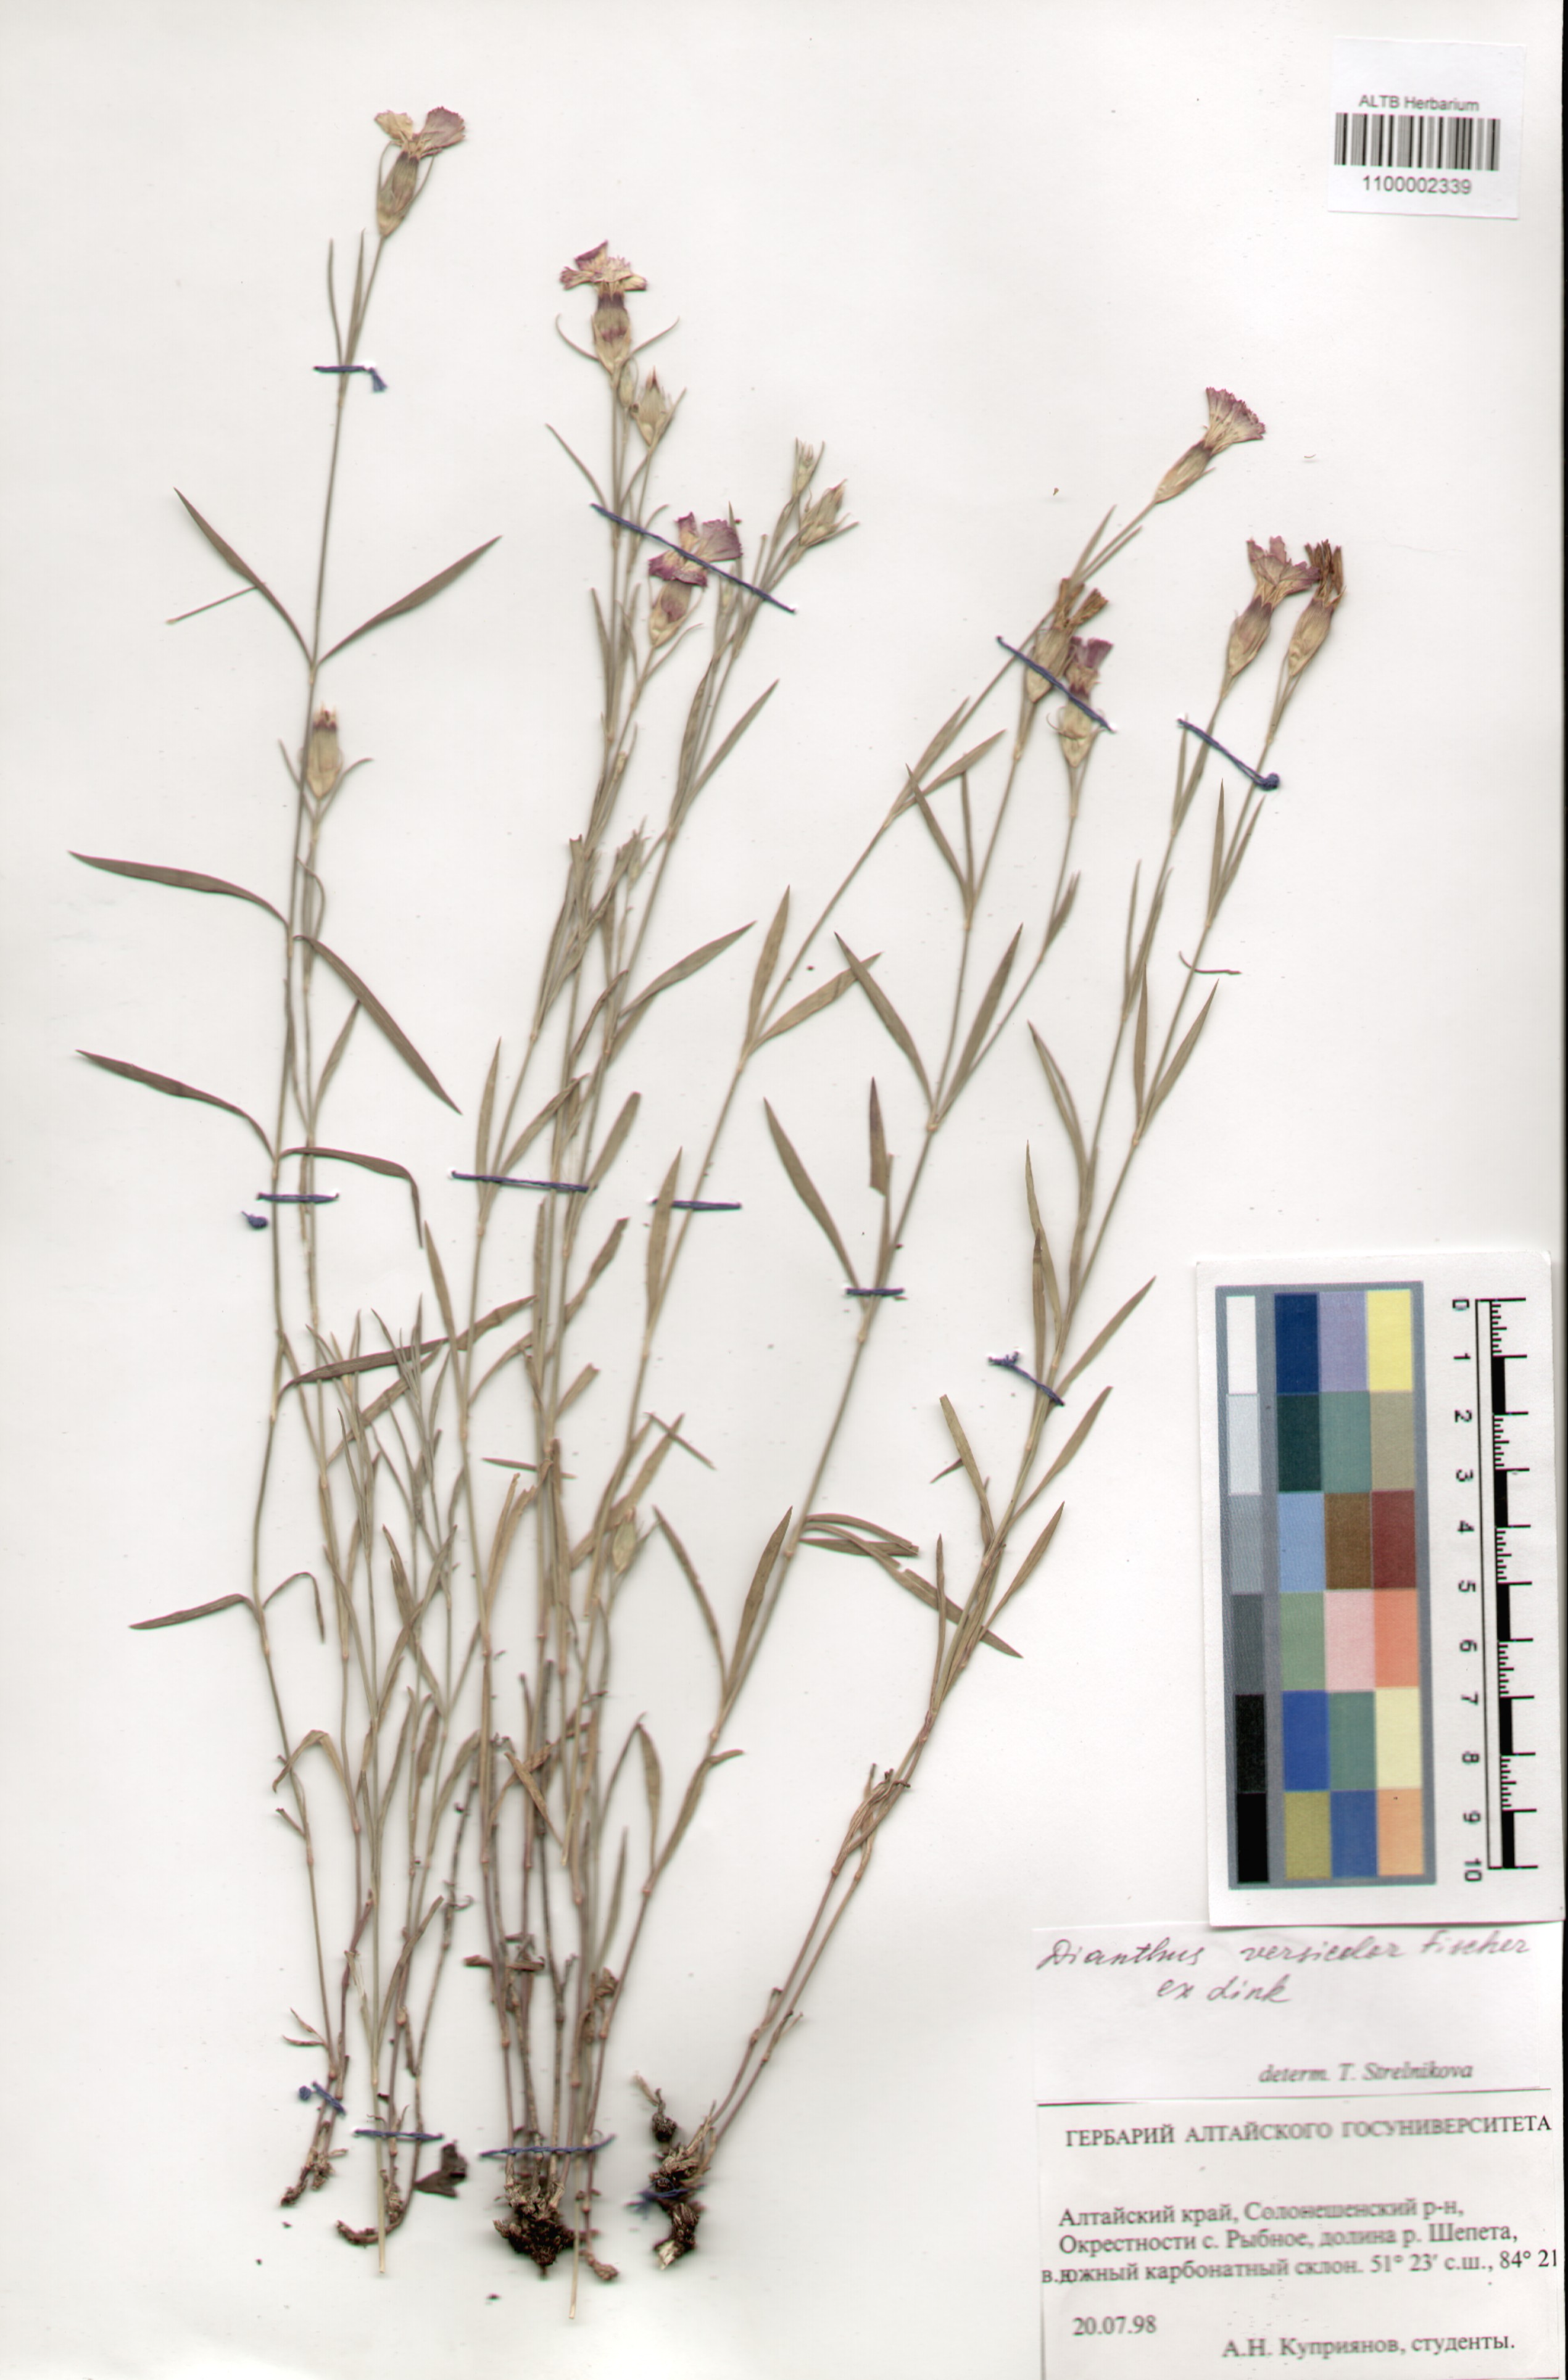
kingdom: Plantae
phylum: Tracheophyta
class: Magnoliopsida
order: Caryophyllales
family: Caryophyllaceae
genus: Dianthus
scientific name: Dianthus chinensis
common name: Rainbow pink
